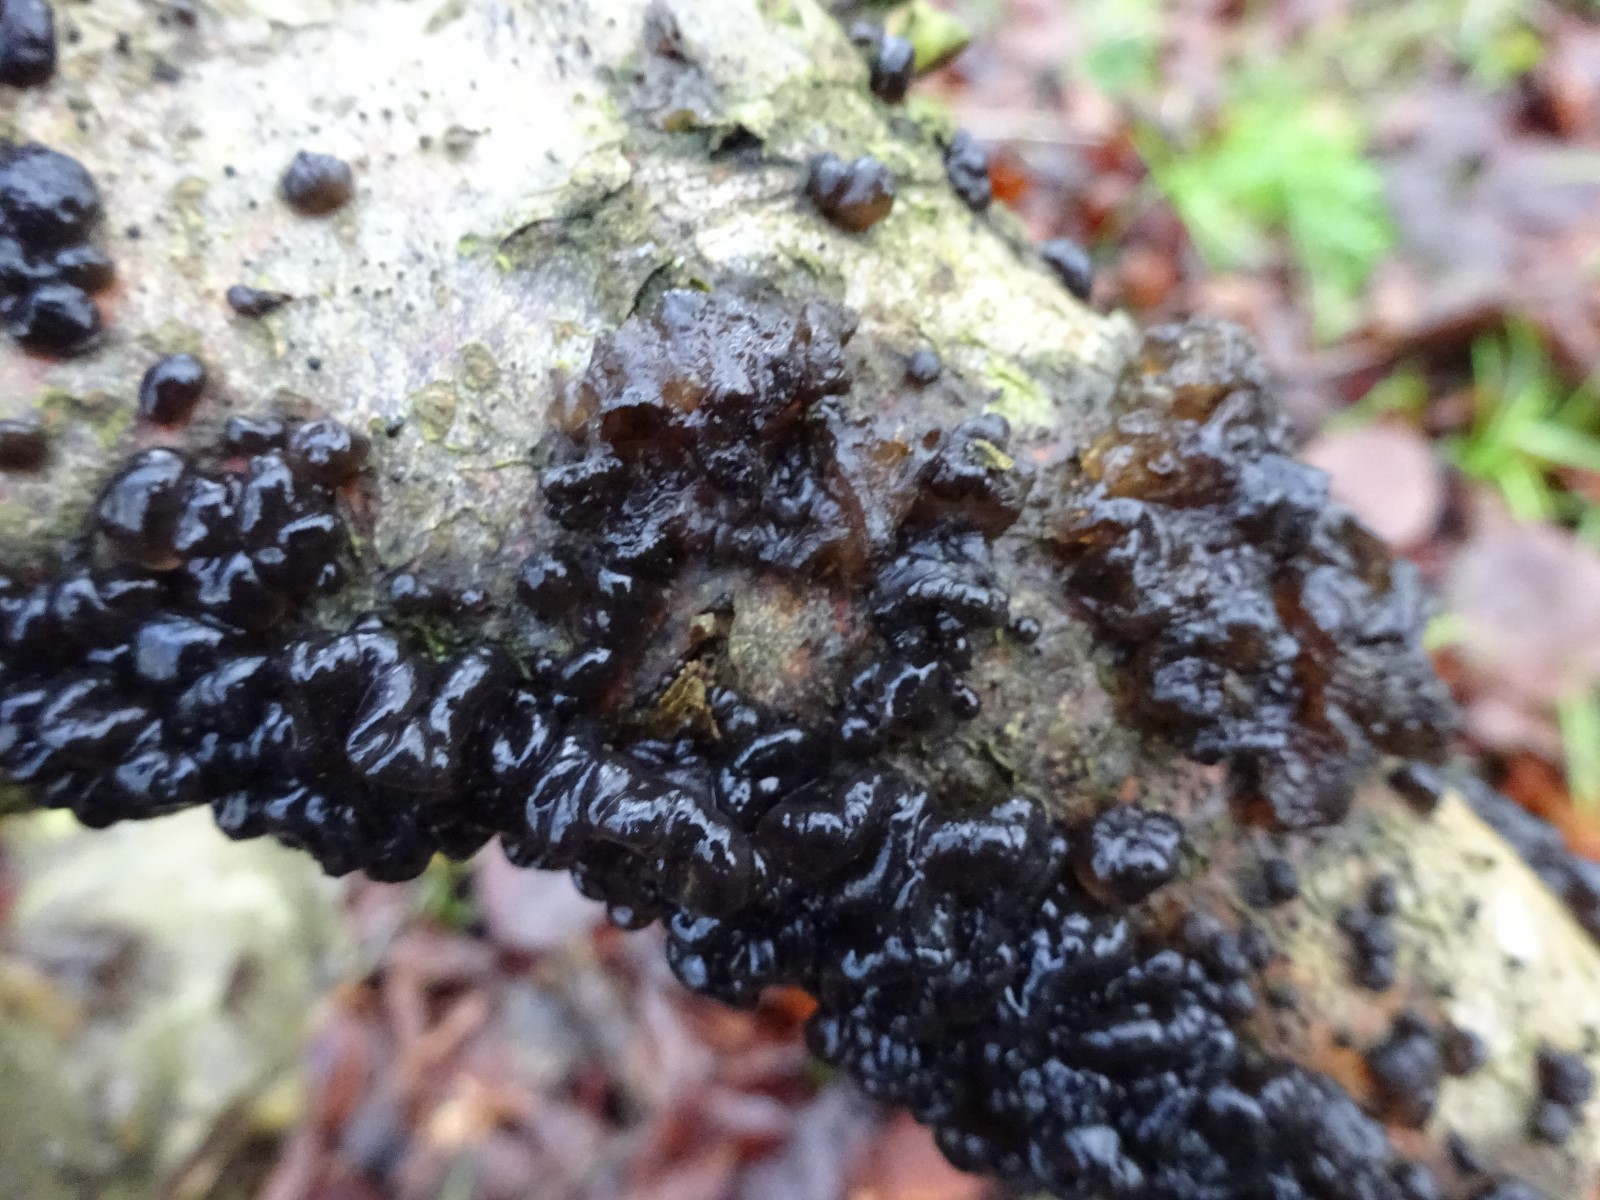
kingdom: Fungi
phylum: Basidiomycota
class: Agaricomycetes
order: Auriculariales
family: Auriculariaceae
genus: Exidia
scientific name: Exidia nigricans
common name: almindelig bævretop
